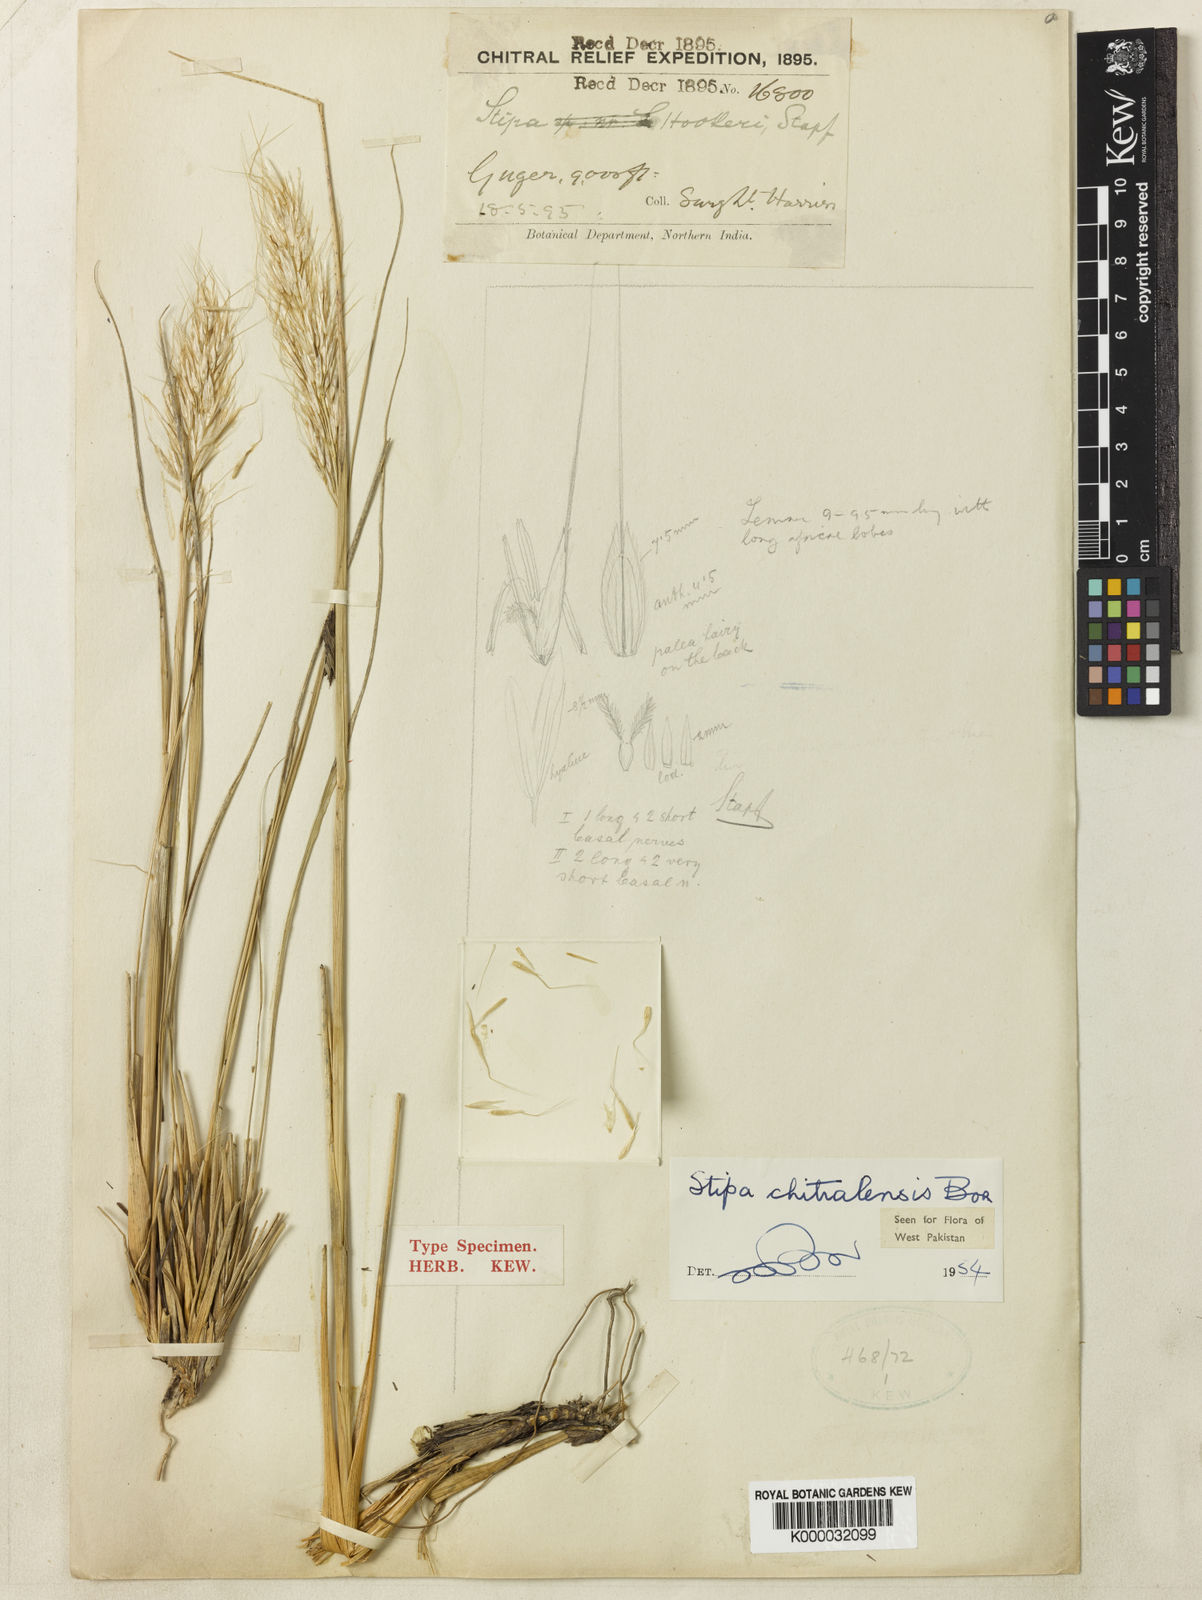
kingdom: Plantae
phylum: Tracheophyta
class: Liliopsida
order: Poales
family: Poaceae
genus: Neotrinia
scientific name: Neotrinia chitralensis
